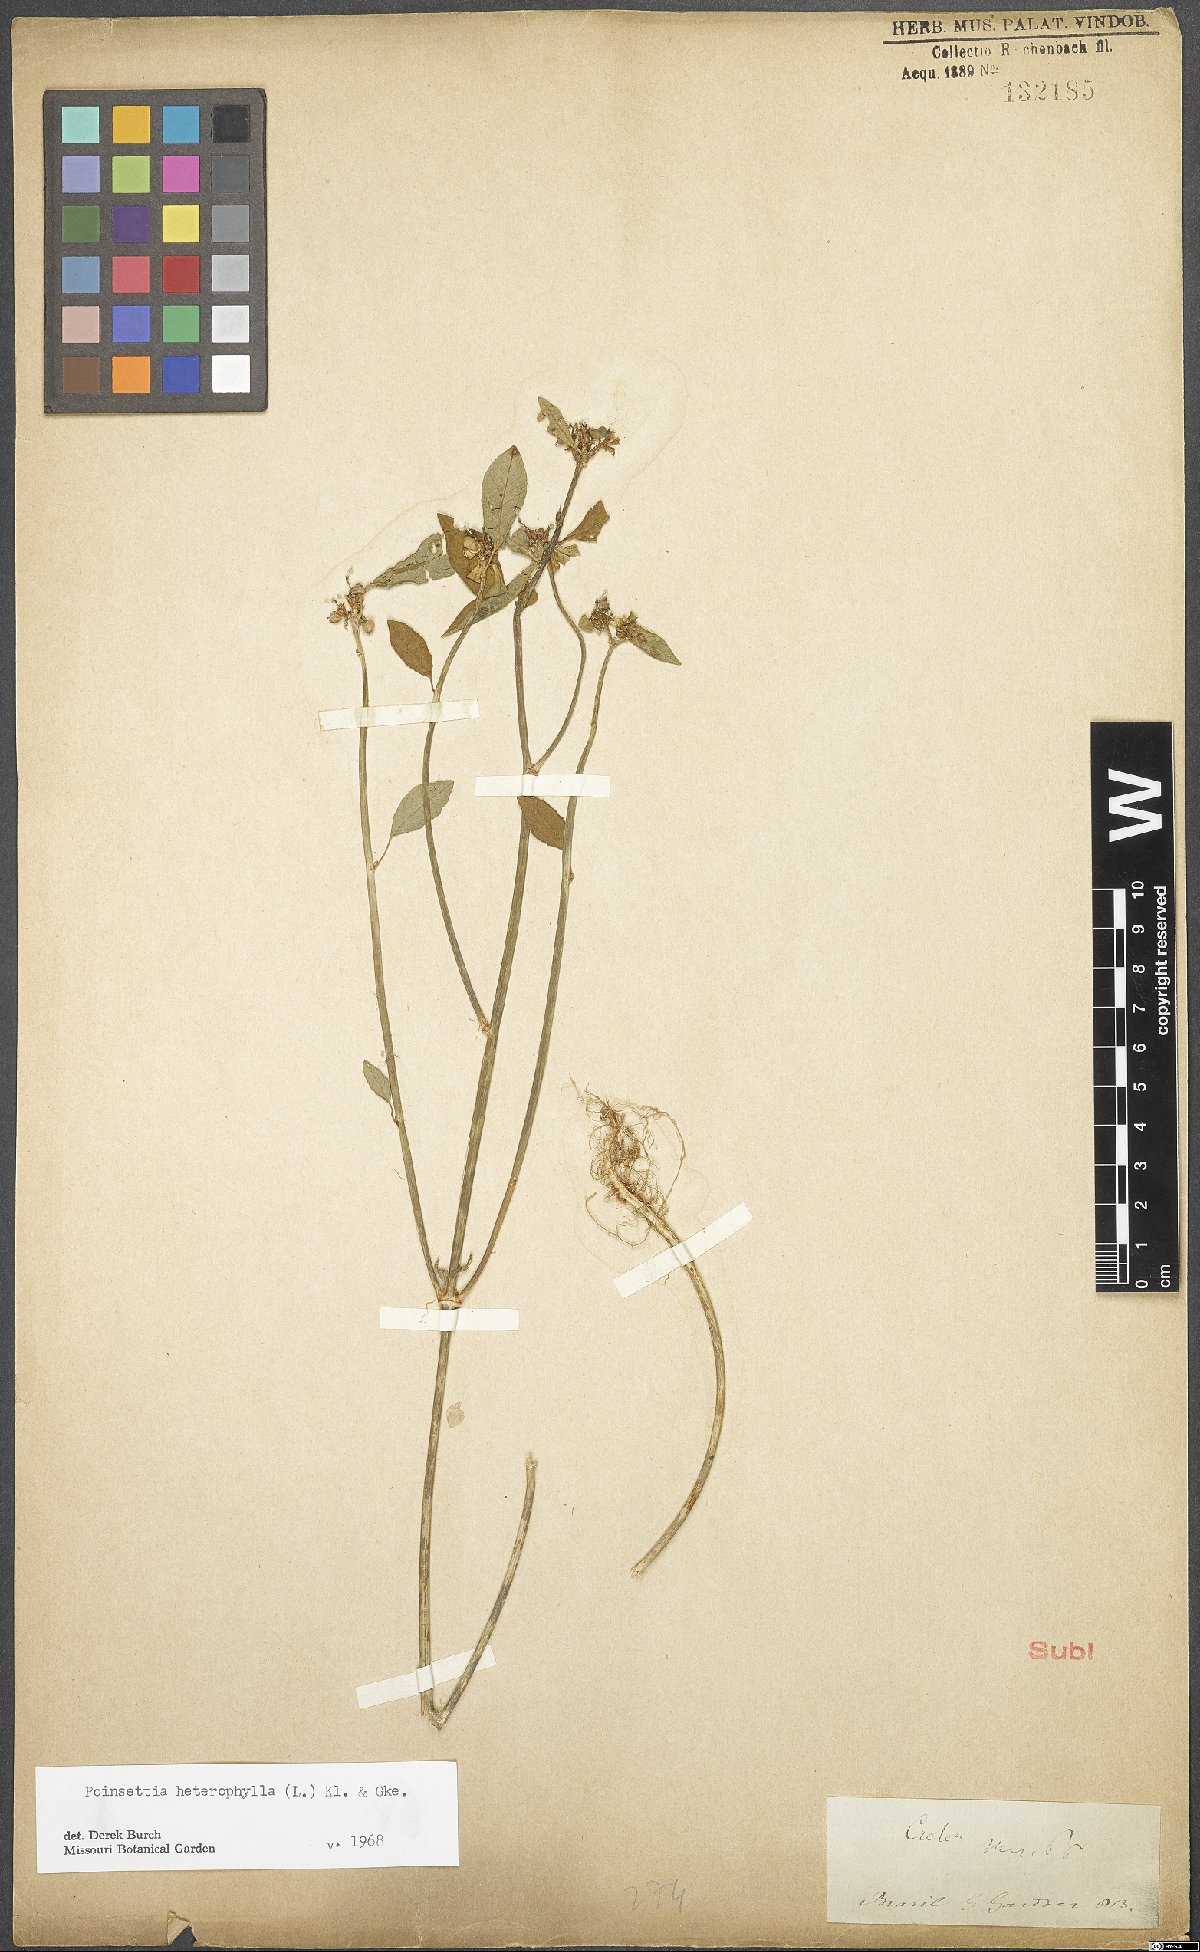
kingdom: Plantae
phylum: Tracheophyta
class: Magnoliopsida
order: Malpighiales
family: Euphorbiaceae
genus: Euphorbia
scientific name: Euphorbia heterophylla
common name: Mexican fireplant
